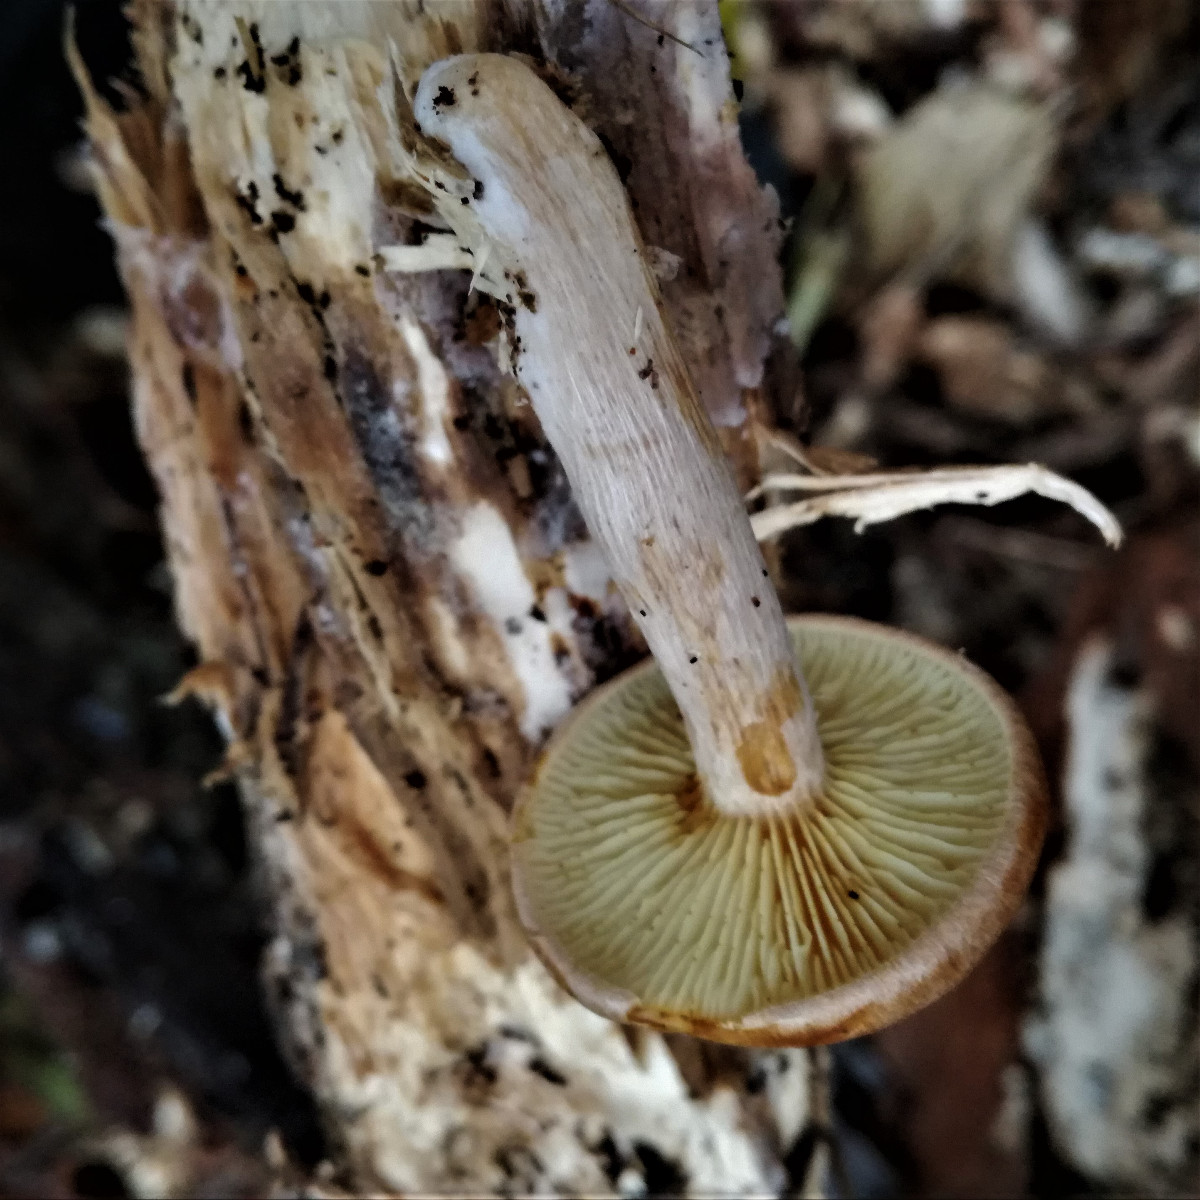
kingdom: Fungi
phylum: Basidiomycota
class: Agaricomycetes
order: Agaricales
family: Hymenogastraceae
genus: Gymnopilus
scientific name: Gymnopilus penetrans
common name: plettet flammehat
